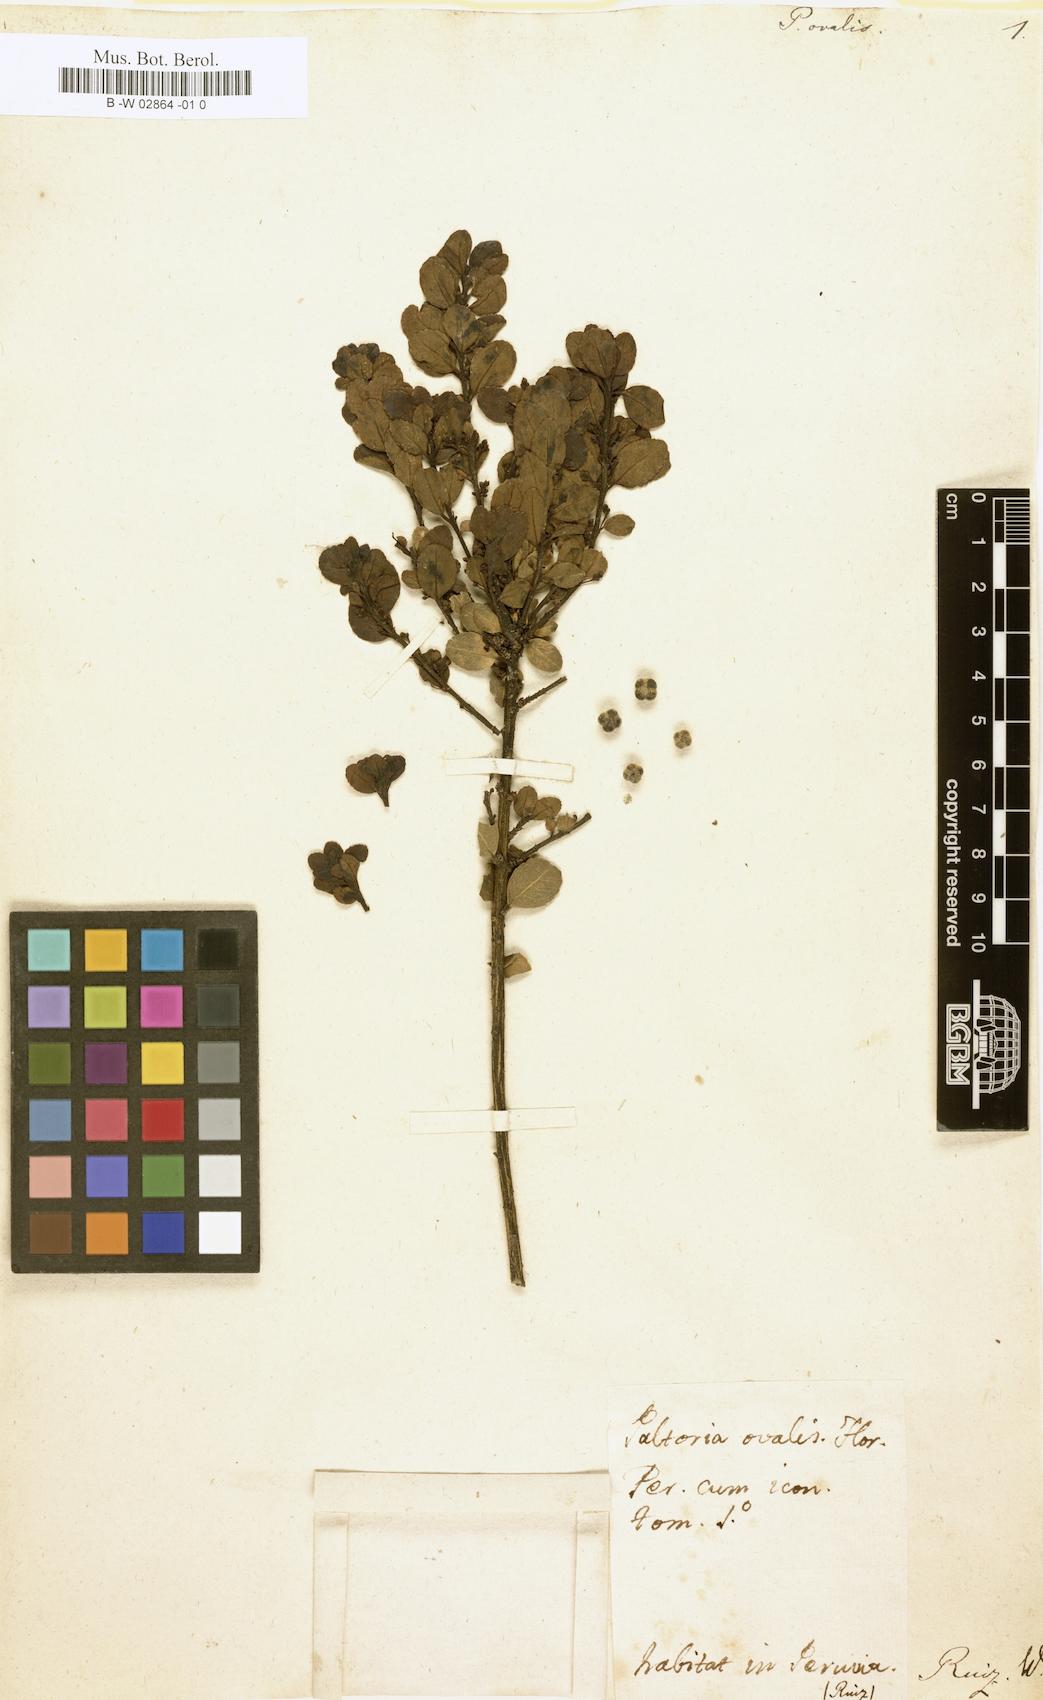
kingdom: Plantae
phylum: Tracheophyta
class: Magnoliopsida
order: Aquifoliales
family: Aquifoliaceae
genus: Ilex
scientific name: Ilex ovalis
